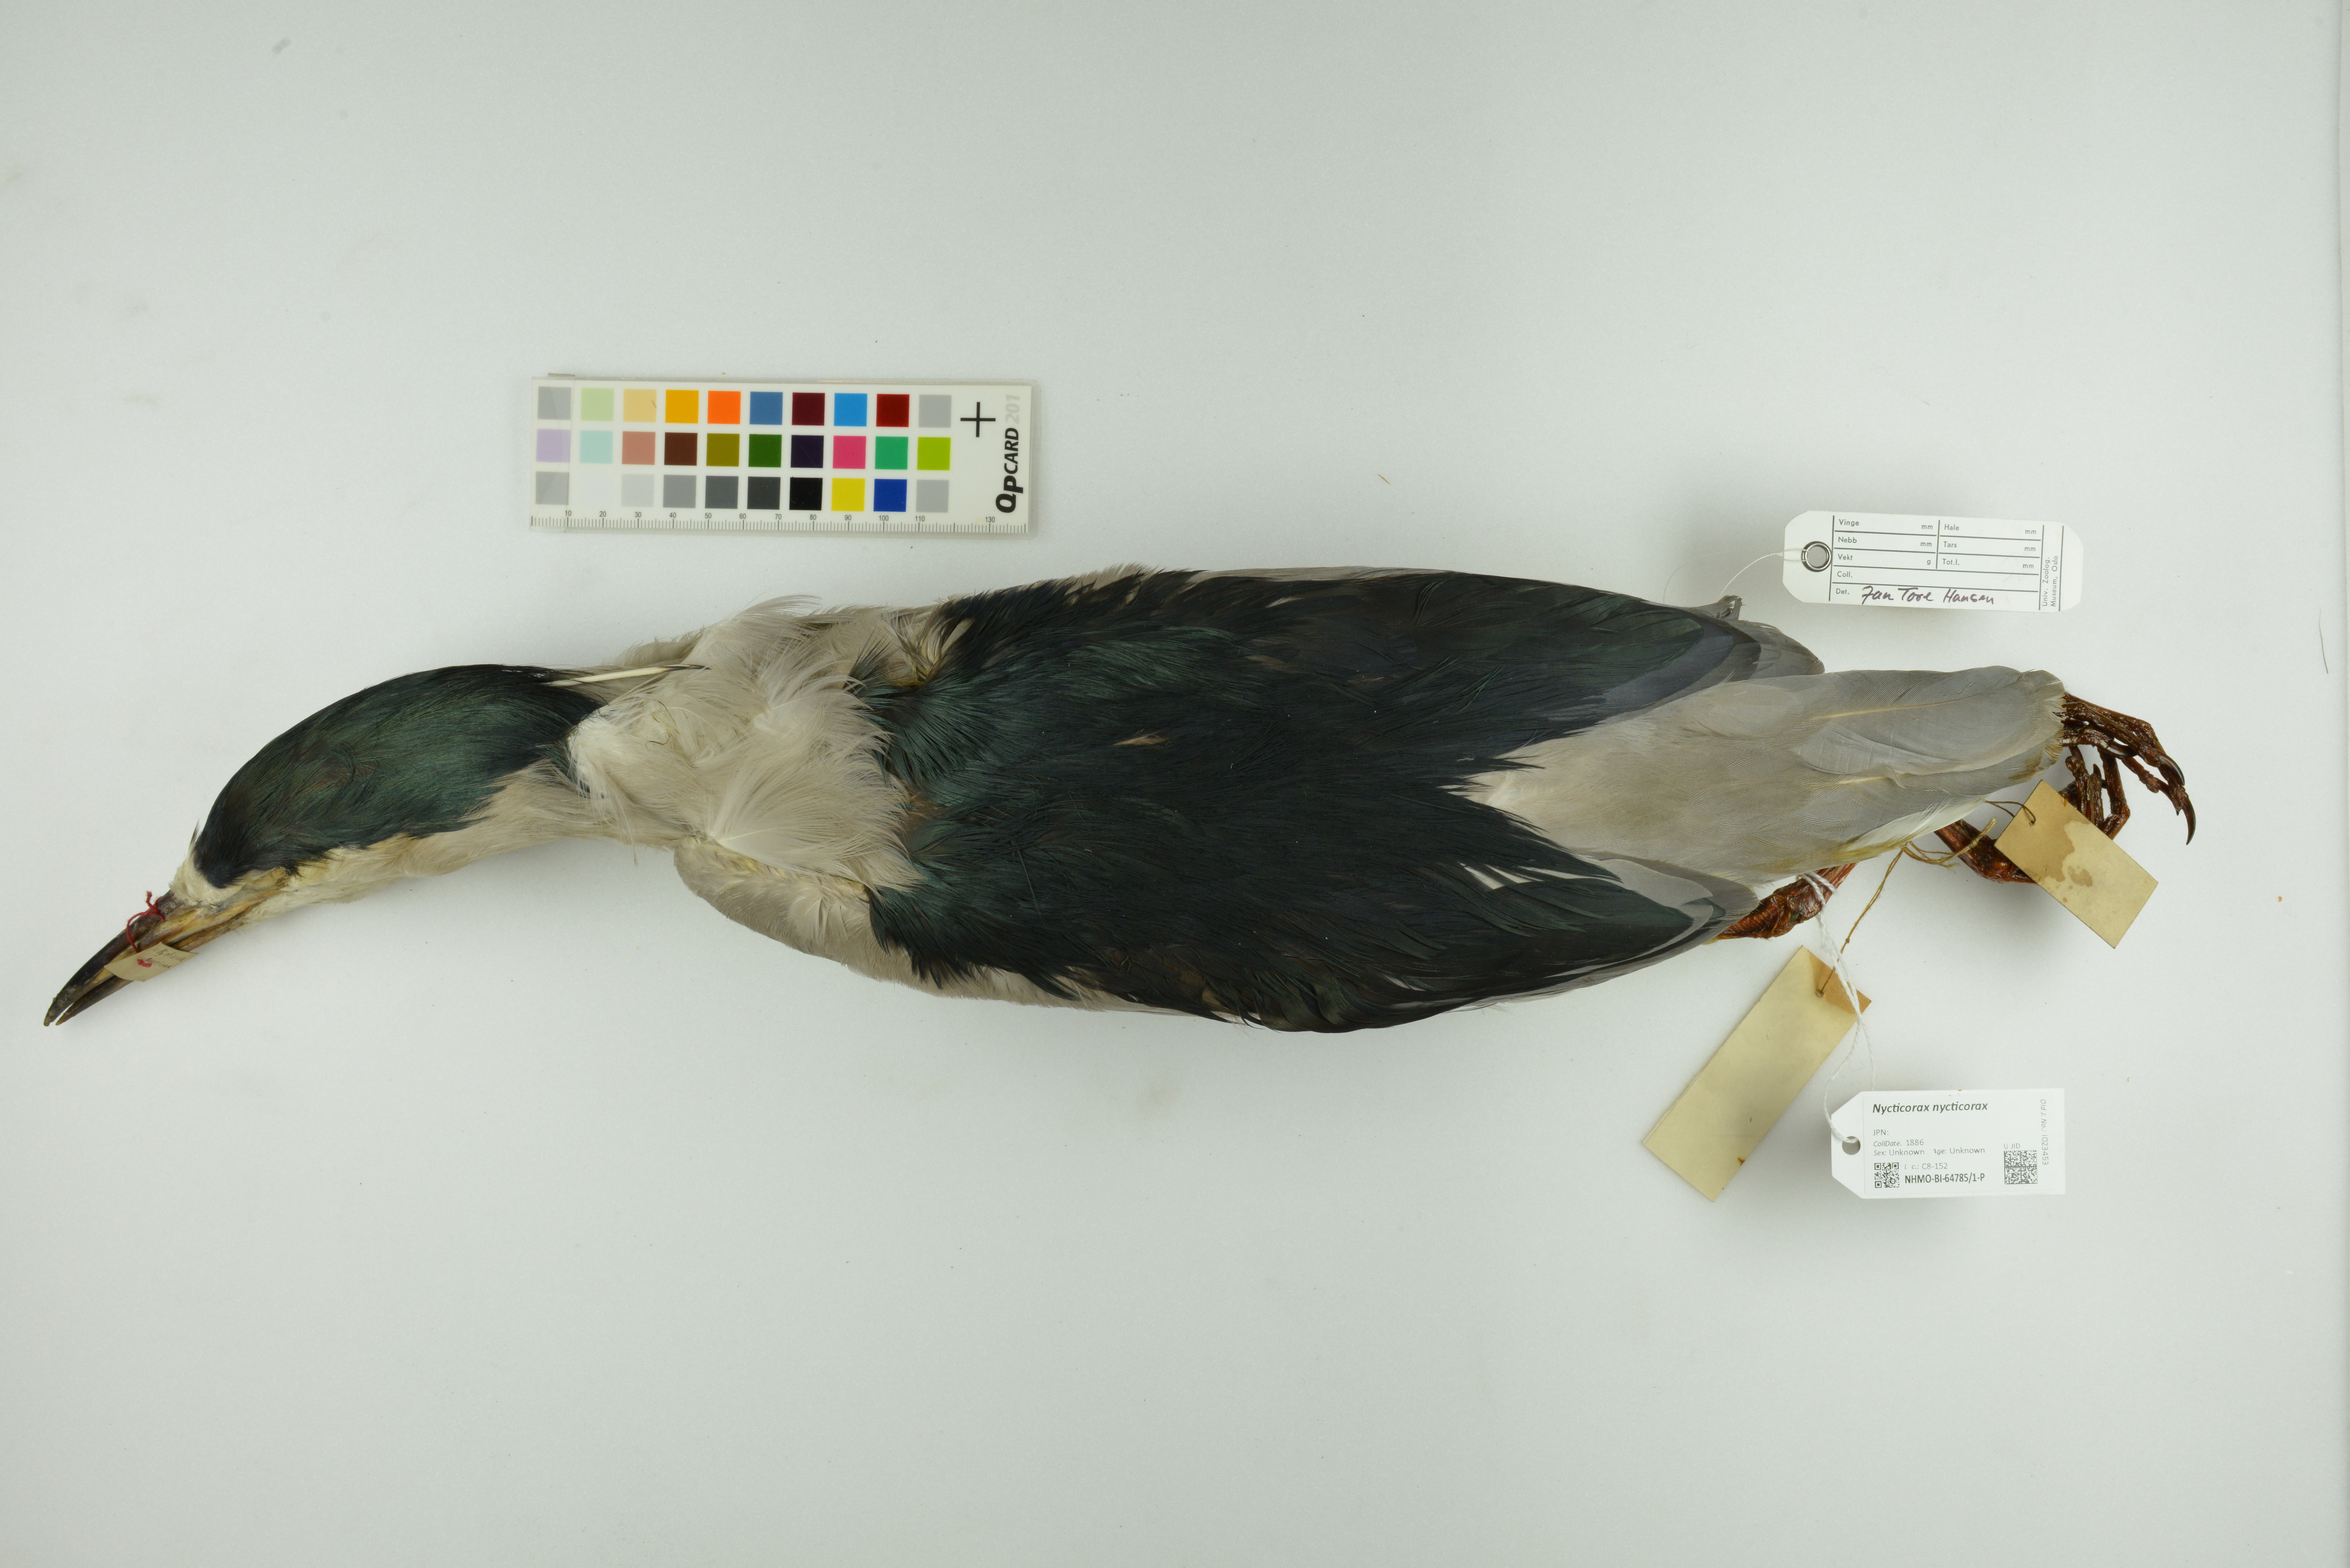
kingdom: Animalia
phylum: Chordata
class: Aves
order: Pelecaniformes
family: Ardeidae
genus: Nycticorax
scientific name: Nycticorax nycticorax
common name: Black-crowned night heron
